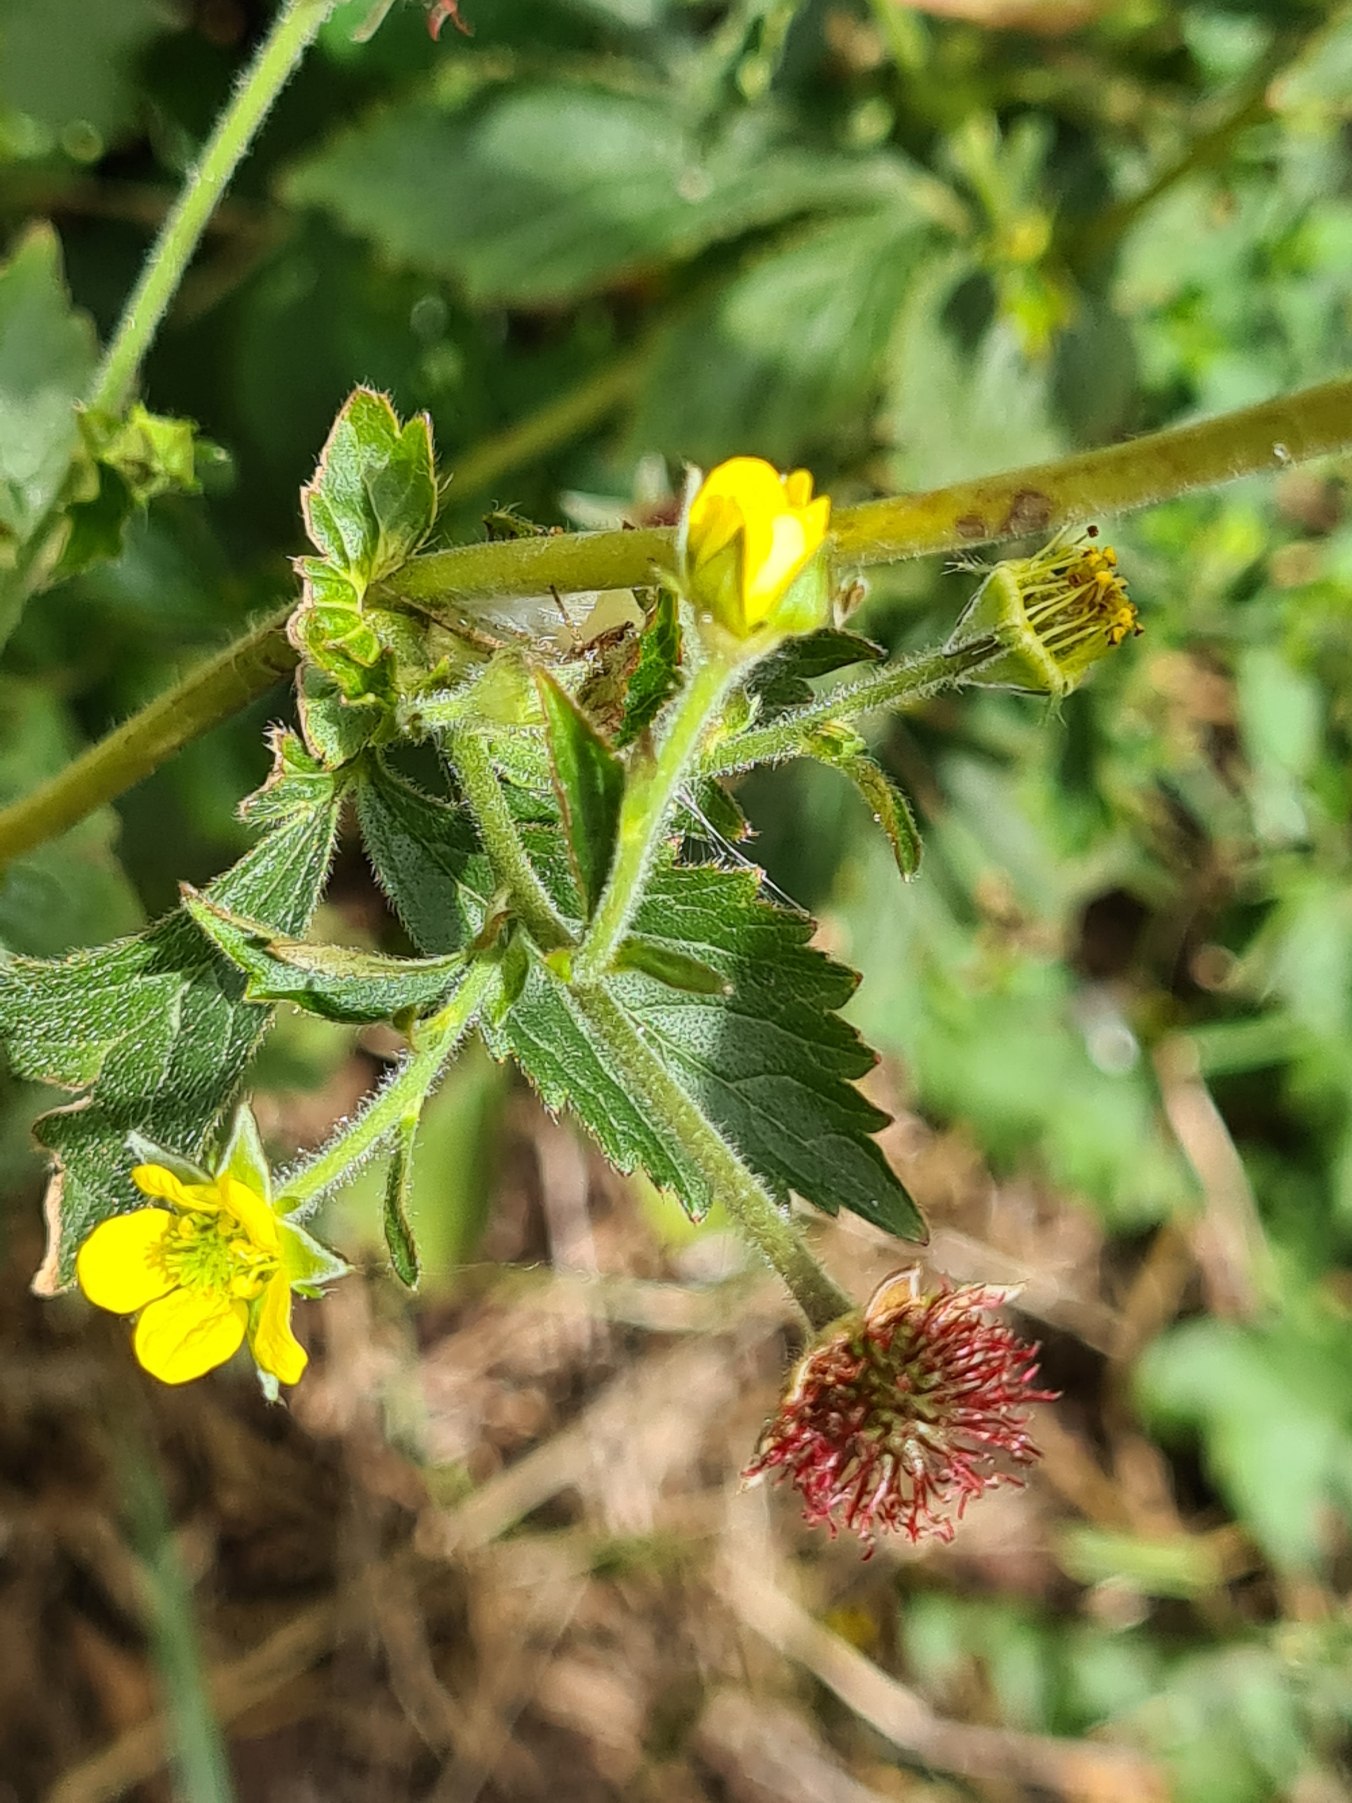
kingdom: Plantae
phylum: Tracheophyta
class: Magnoliopsida
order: Rosales
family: Rosaceae
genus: Geum
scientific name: Geum urbanum
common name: Feber-nellikerod
